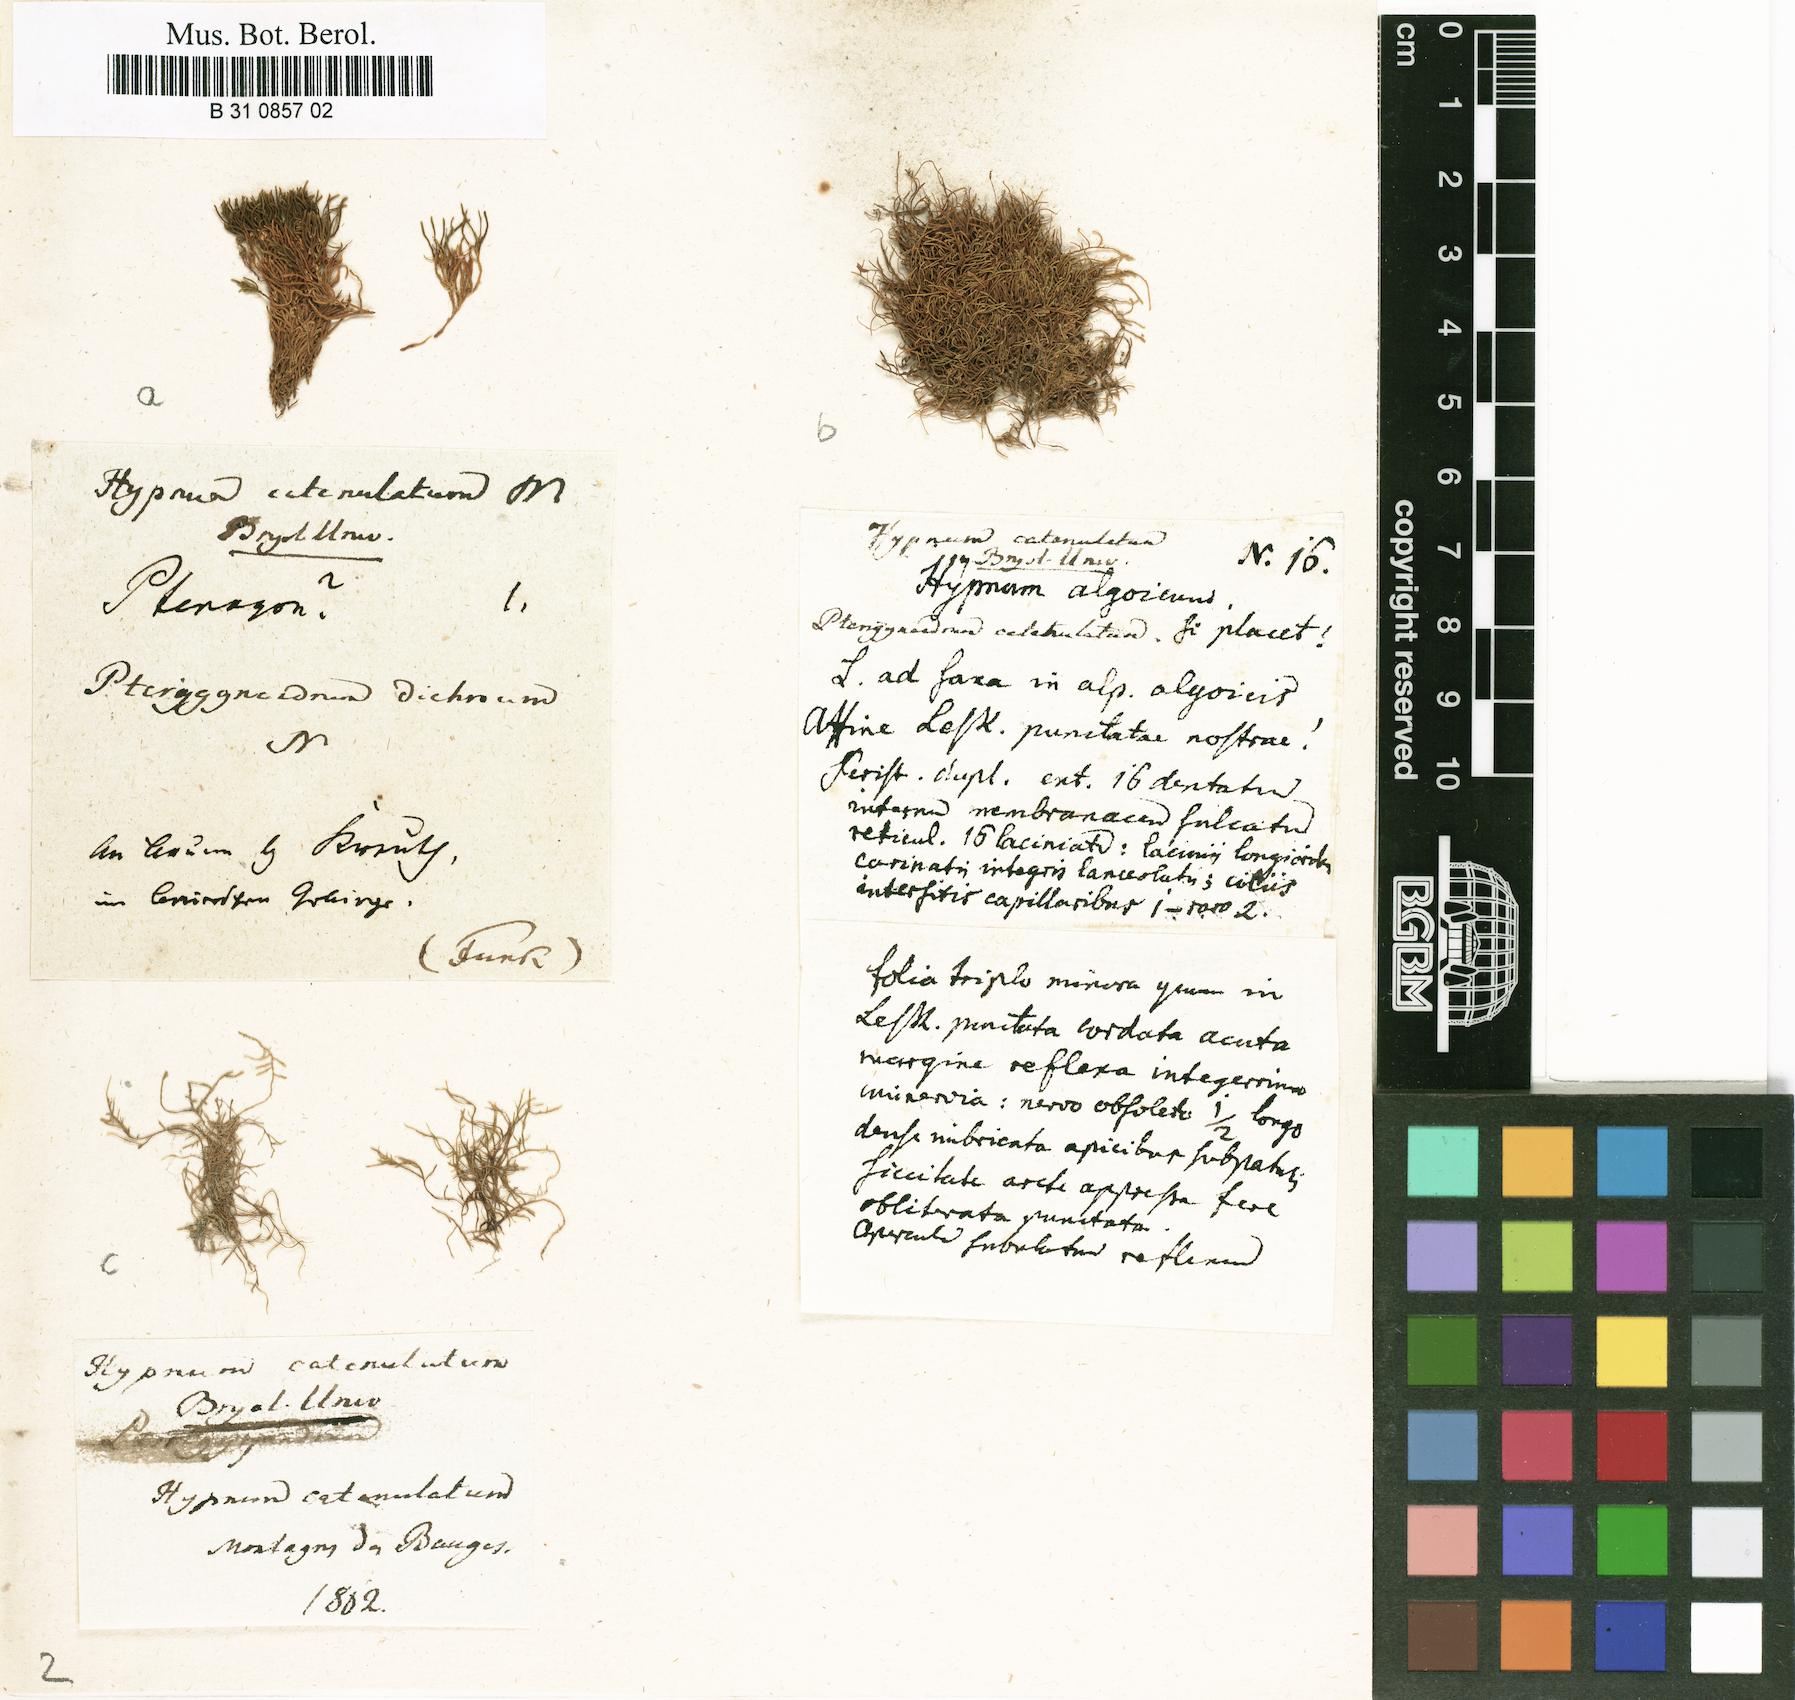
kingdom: Plantae
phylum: Bryophyta
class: Bryopsida
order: Hypnales
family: Pseudoleskeellaceae
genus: Pseudoleskeella
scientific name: Pseudoleskeella catenulata
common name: Chained leskea
